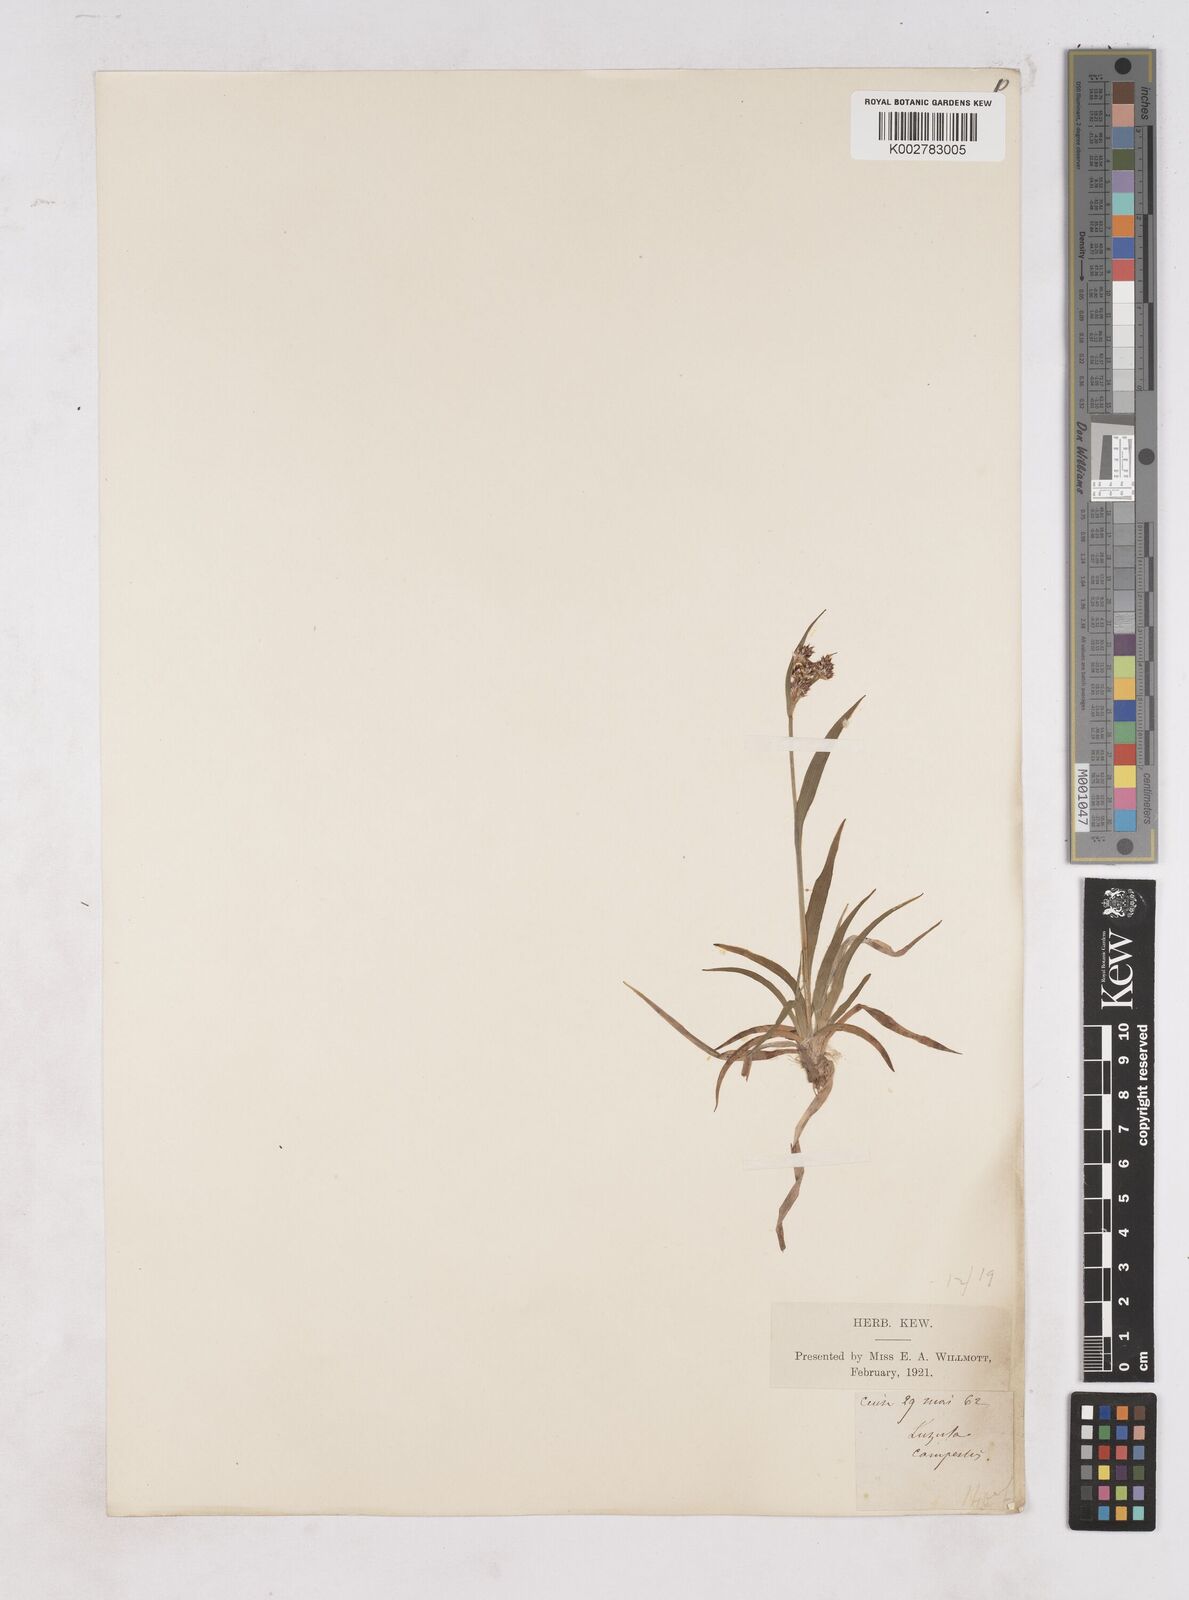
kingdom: Plantae
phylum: Tracheophyta
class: Liliopsida
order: Poales
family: Juncaceae
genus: Luzula
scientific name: Luzula campestris
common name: Field wood-rush
